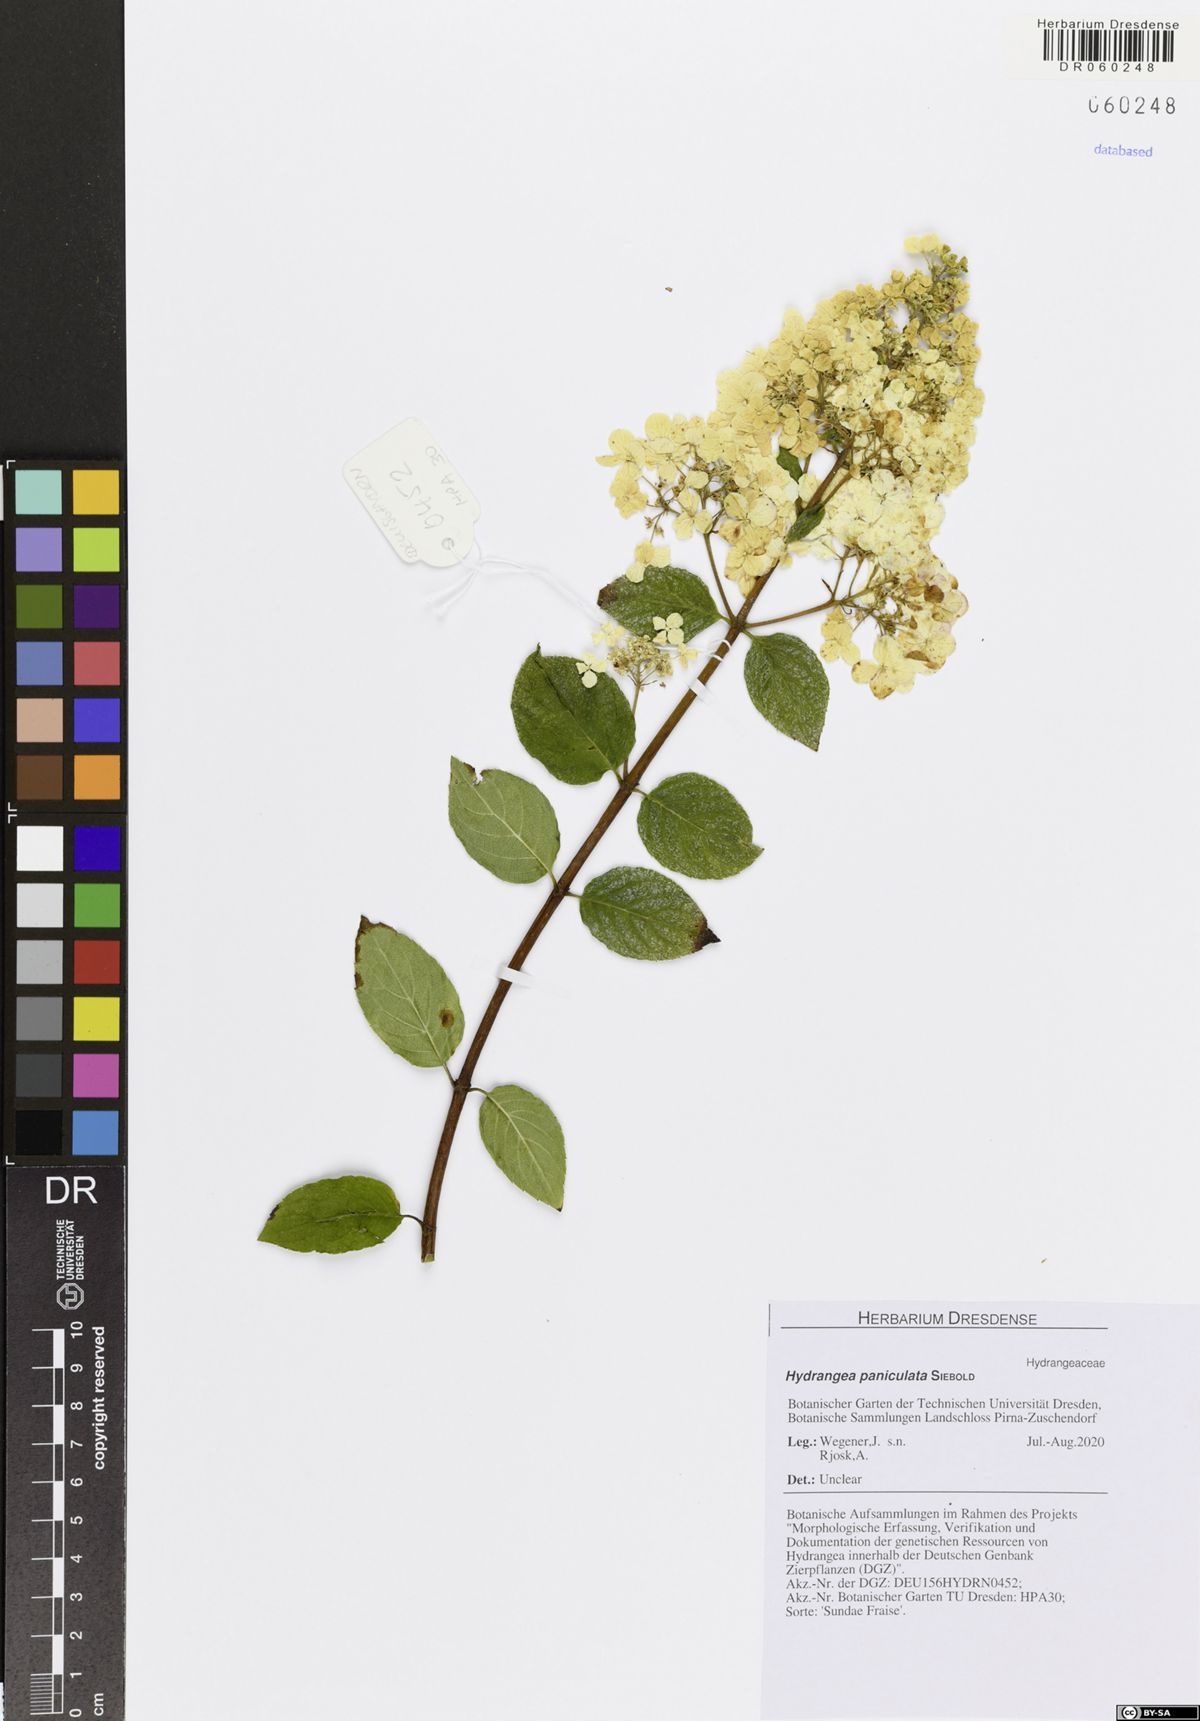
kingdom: Plantae
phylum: Tracheophyta
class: Magnoliopsida
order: Cornales
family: Hydrangeaceae
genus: Hydrangea
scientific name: Hydrangea paniculata
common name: Panicled hydrangea
